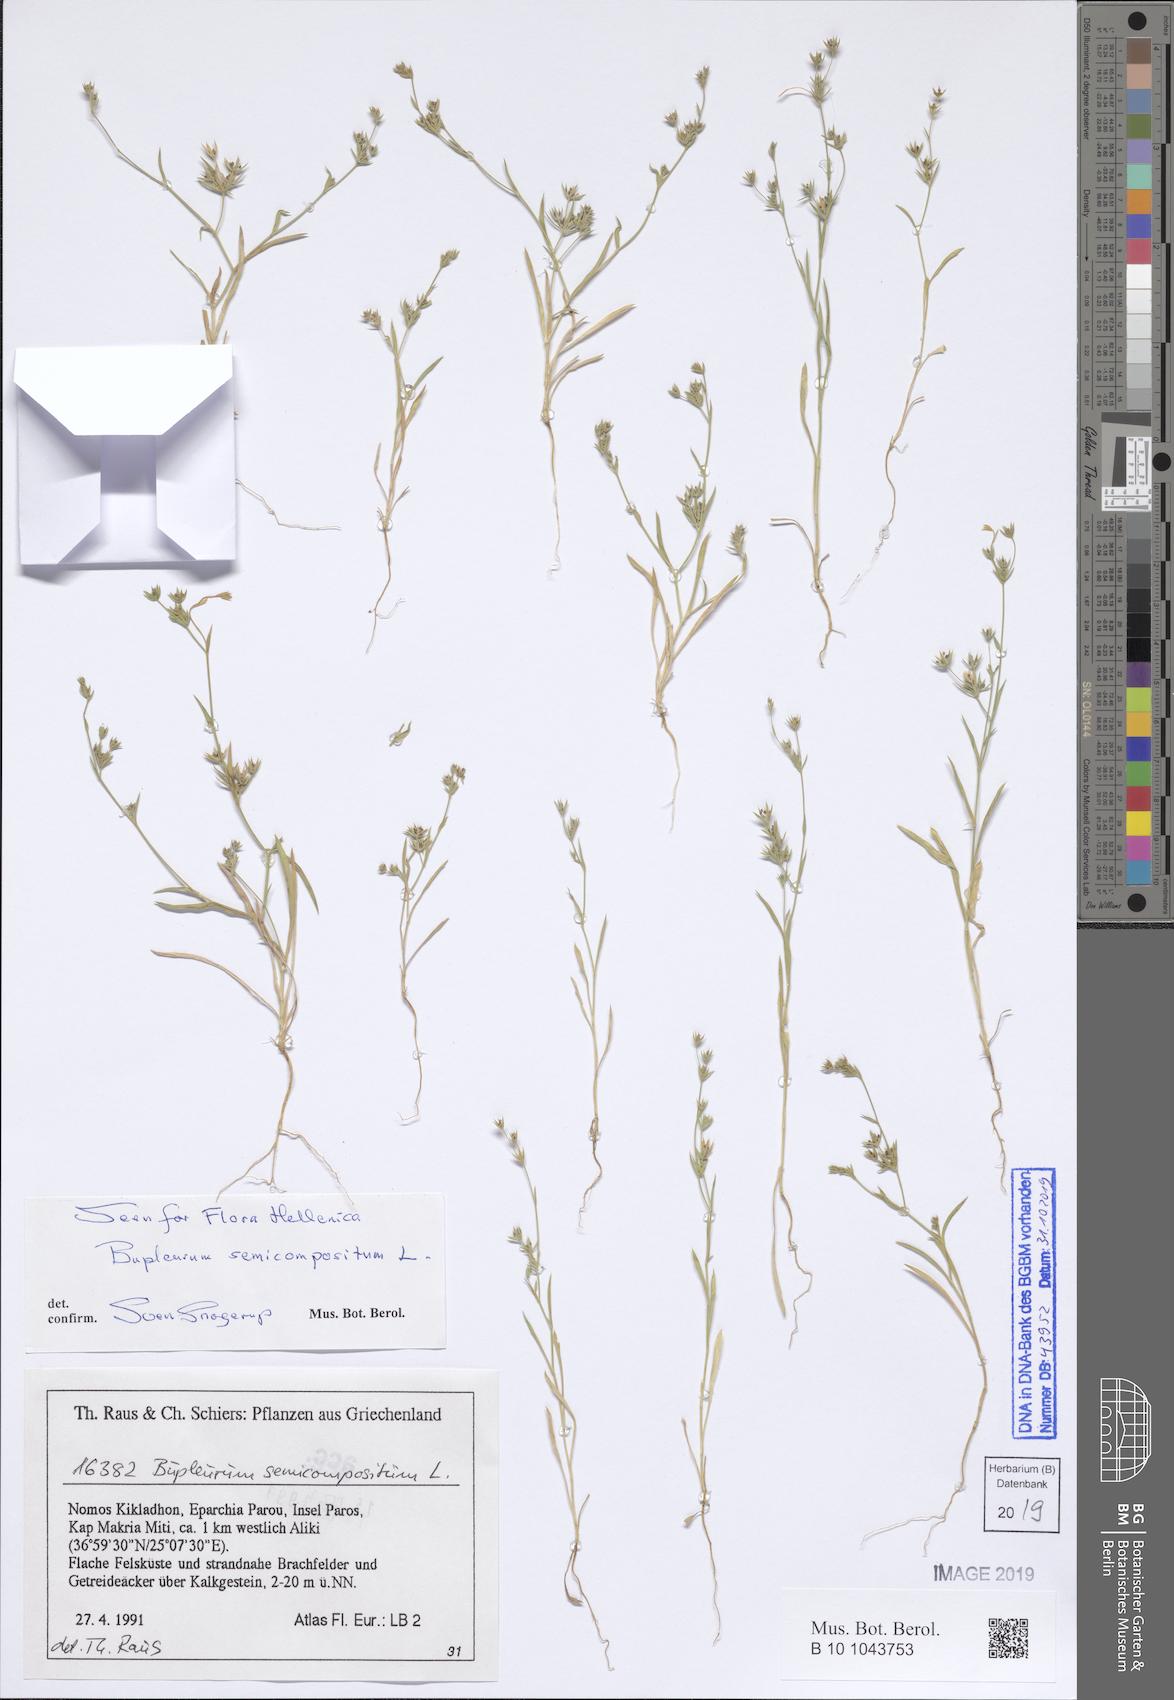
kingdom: Plantae
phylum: Tracheophyta
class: Magnoliopsida
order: Apiales
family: Apiaceae
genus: Bupleurum
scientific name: Bupleurum semicompositum
